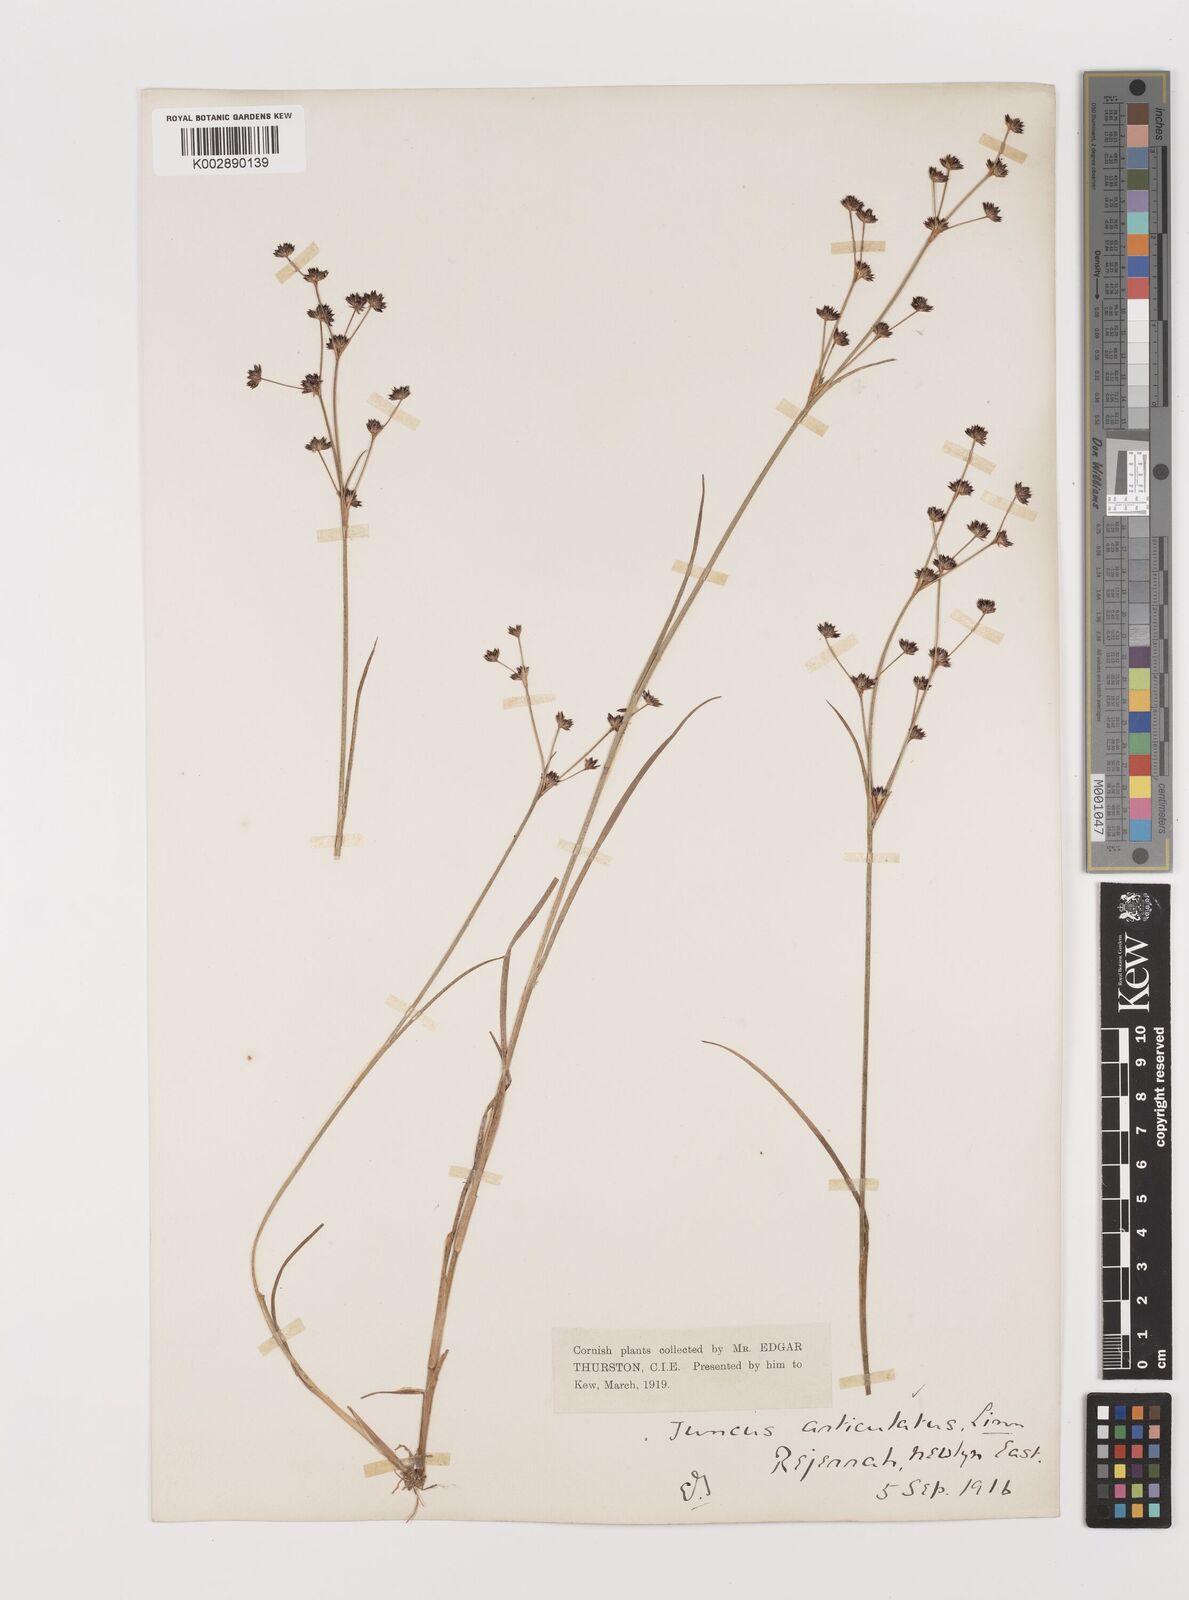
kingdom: Plantae
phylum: Tracheophyta
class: Liliopsida
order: Poales
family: Juncaceae
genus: Juncus
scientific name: Juncus articulatus
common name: Jointed rush
